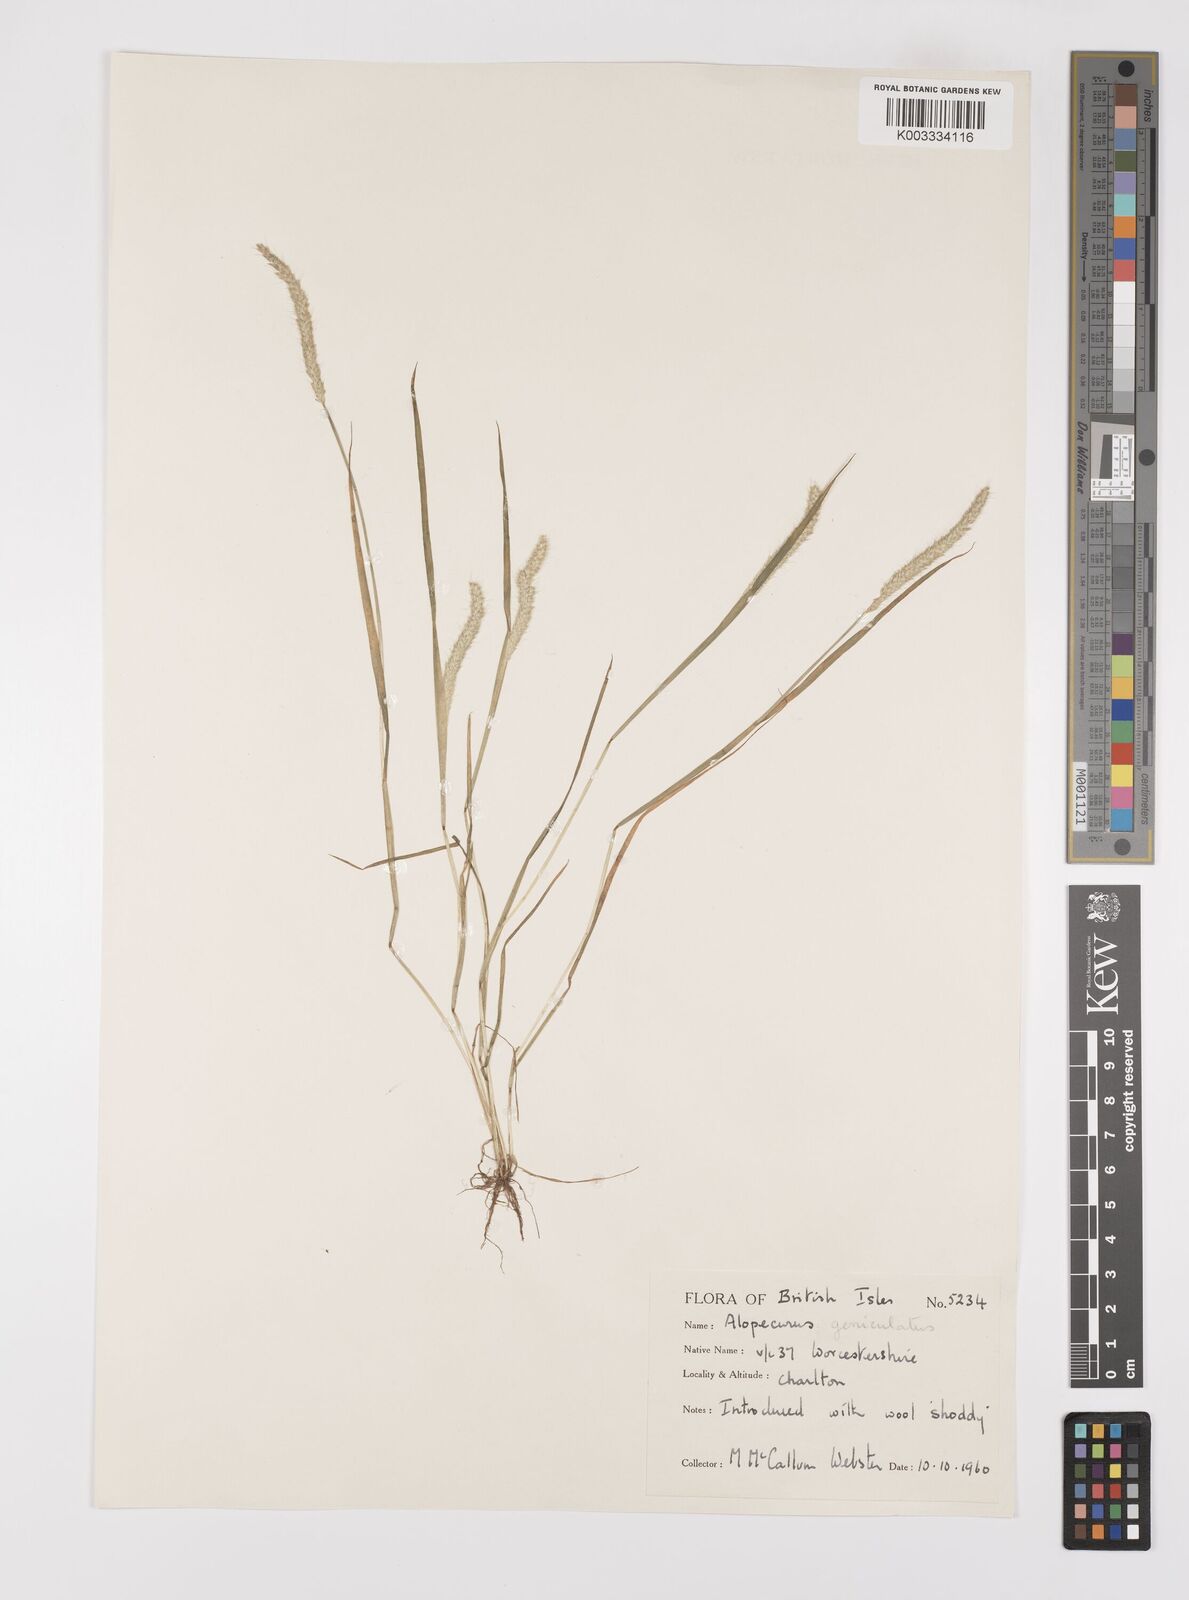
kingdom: Plantae
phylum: Tracheophyta
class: Liliopsida
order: Poales
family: Poaceae
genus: Alopecurus
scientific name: Alopecurus geniculatus
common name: Water foxtail
